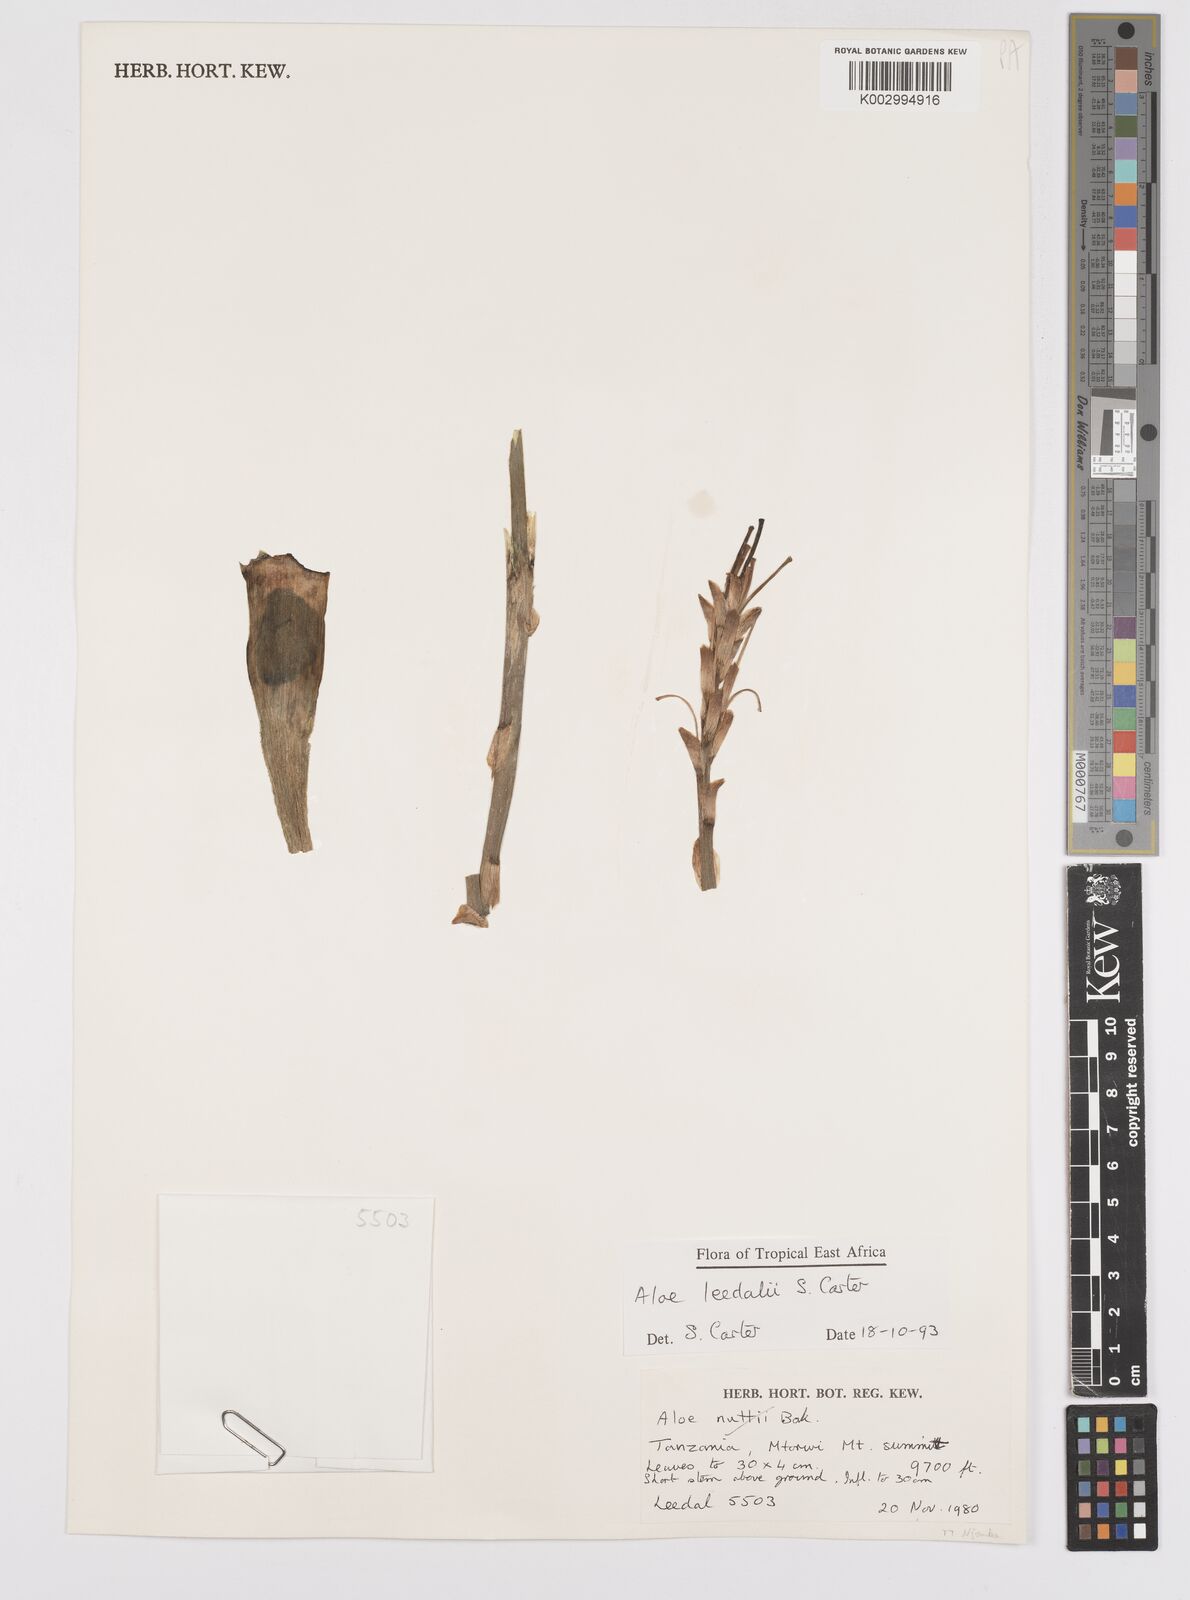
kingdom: Plantae
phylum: Tracheophyta
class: Liliopsida
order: Asparagales
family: Asphodelaceae
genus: Aloe
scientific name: Aloe leedalii
